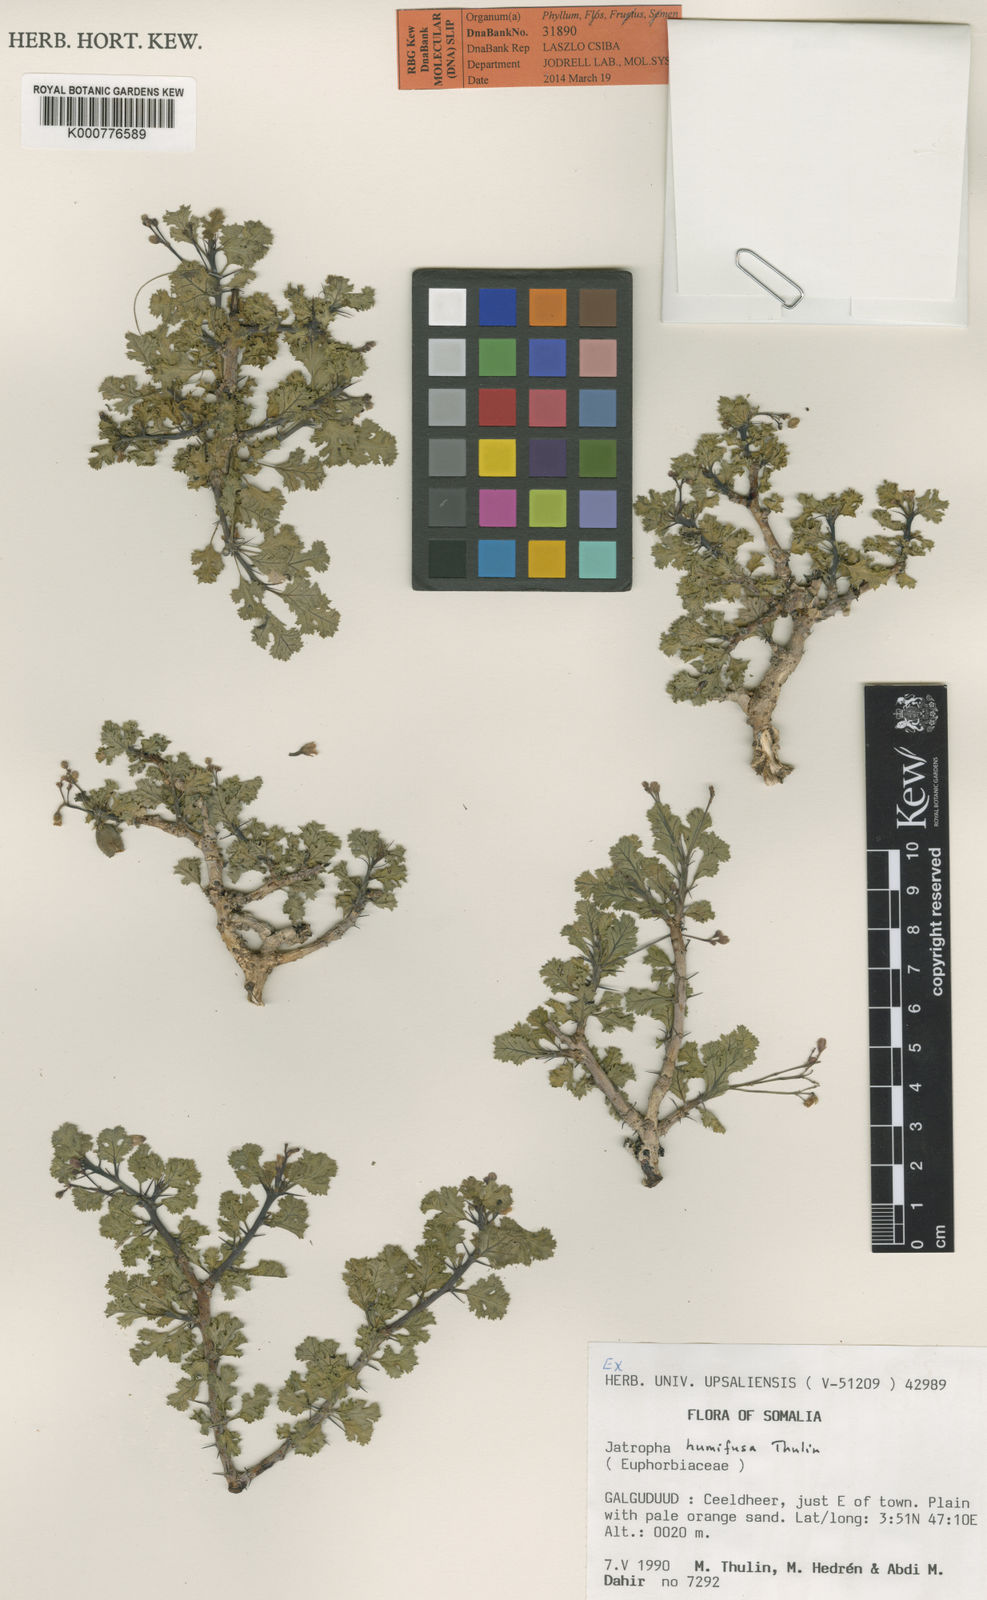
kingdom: Plantae
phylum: Tracheophyta
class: Magnoliopsida
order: Malpighiales
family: Euphorbiaceae
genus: Jatropha
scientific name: Jatropha humifusa
